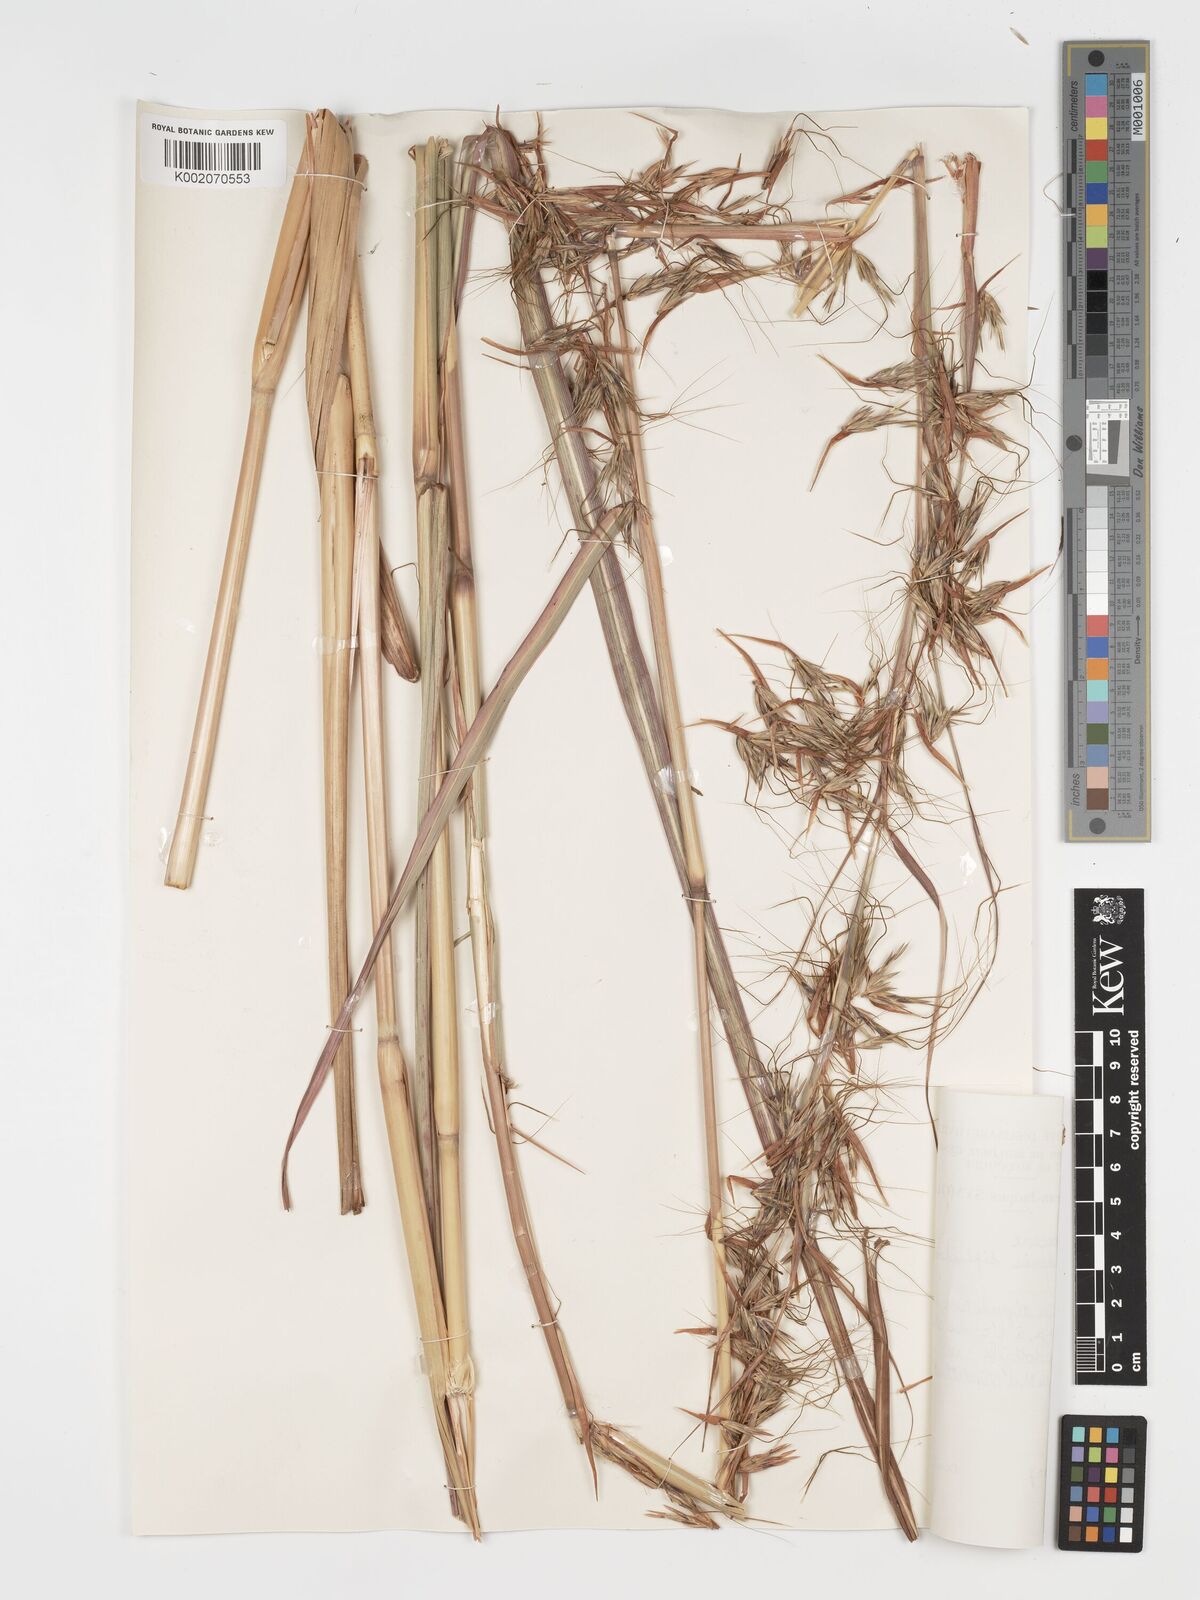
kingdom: Plantae
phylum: Tracheophyta
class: Liliopsida
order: Poales
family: Poaceae
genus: Hyparrhenia
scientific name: Hyparrhenia diplandra
